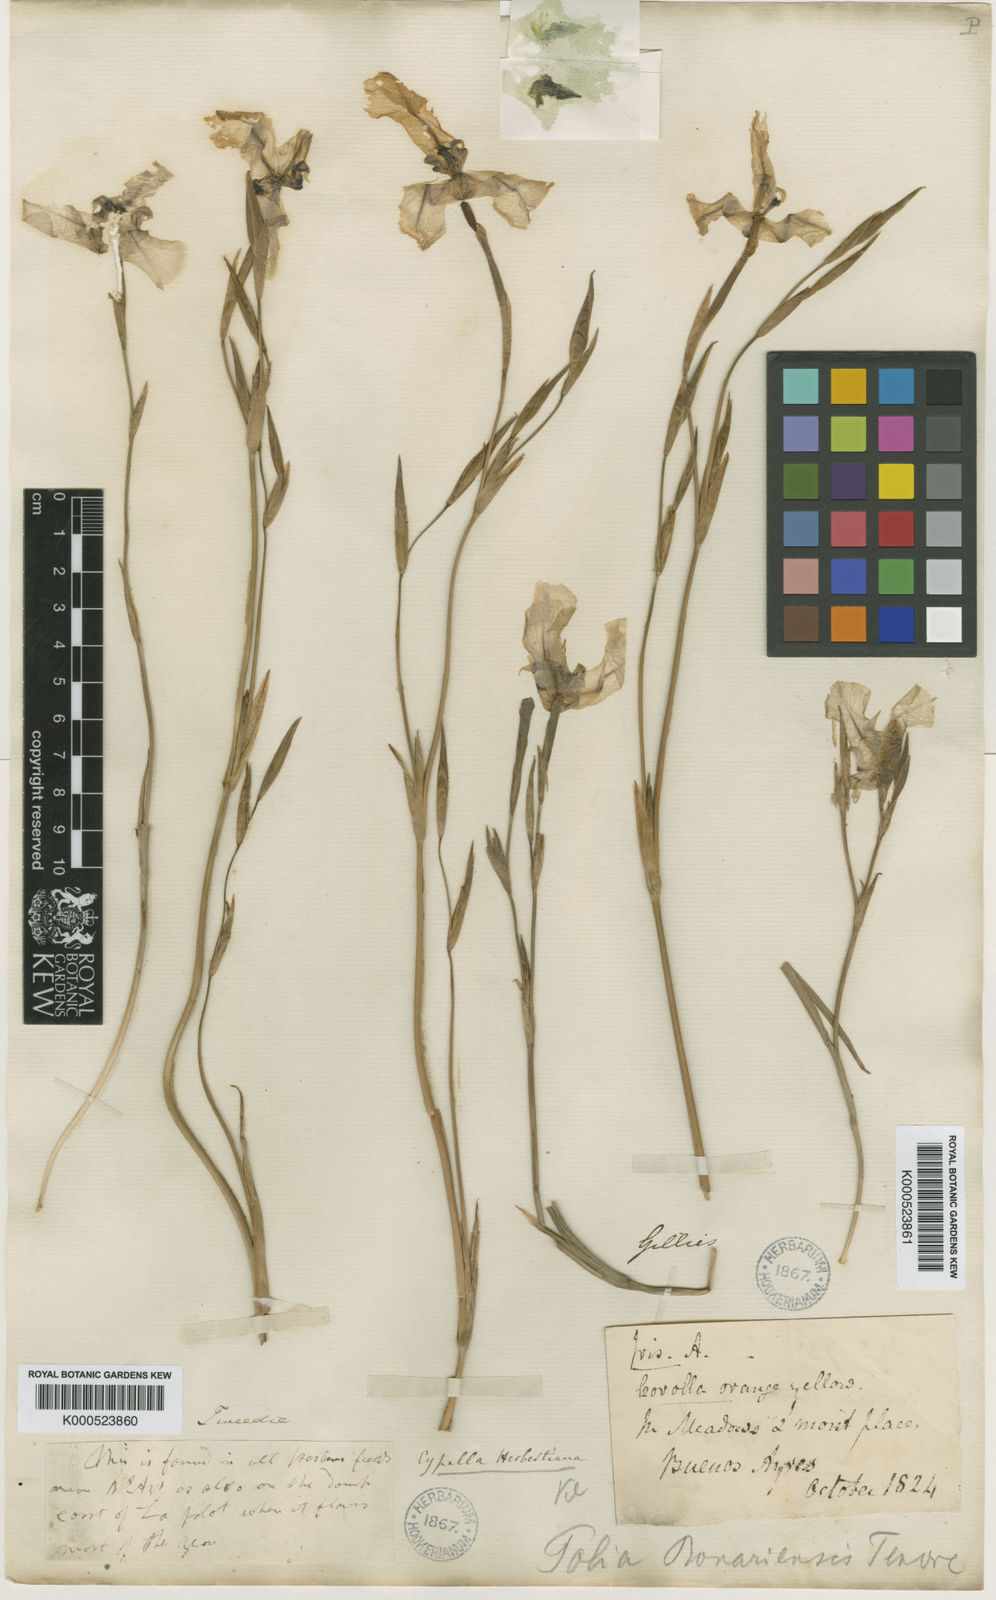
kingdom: Plantae
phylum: Tracheophyta
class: Liliopsida
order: Asparagales
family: Iridaceae
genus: Cypella
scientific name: Cypella herbertii
